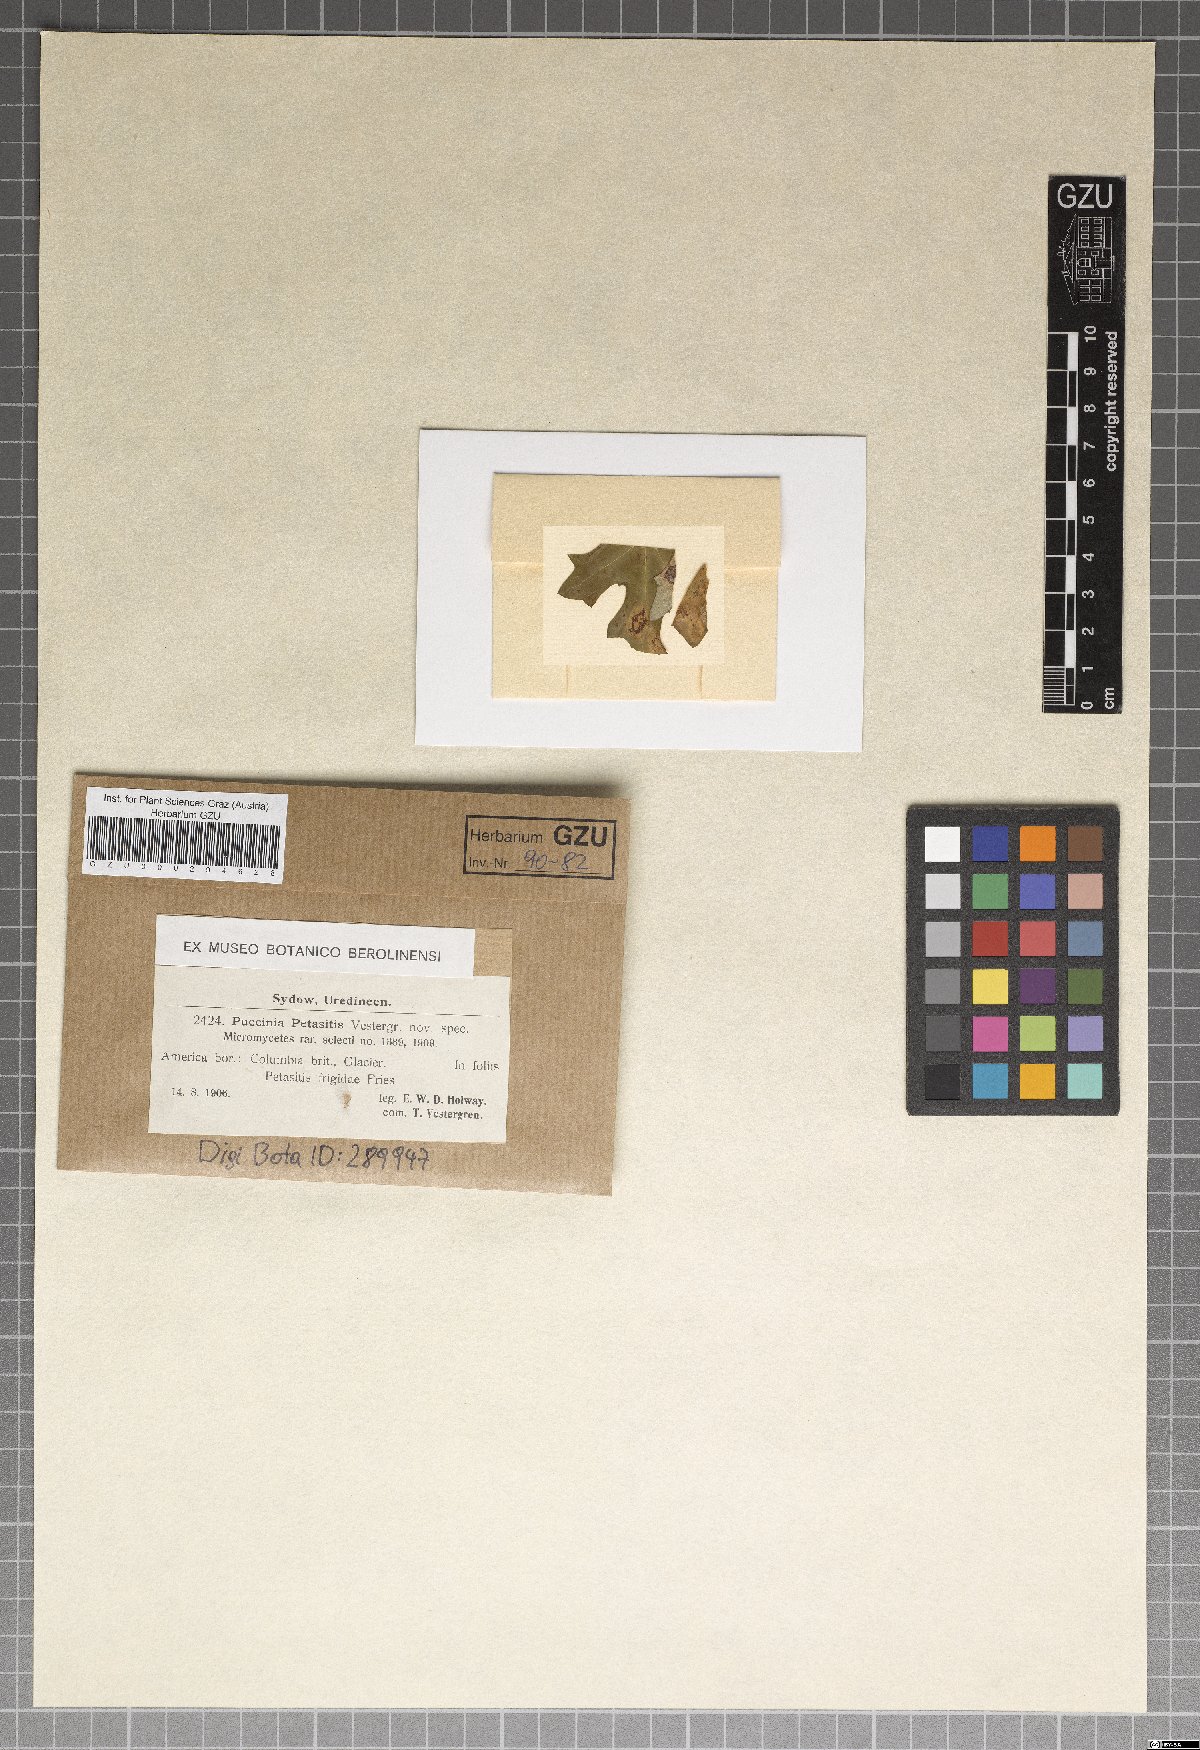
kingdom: Fungi
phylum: Basidiomycota
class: Pucciniomycetes
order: Pucciniales
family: Pucciniaceae
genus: Puccinia
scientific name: Puccinia petasitis
